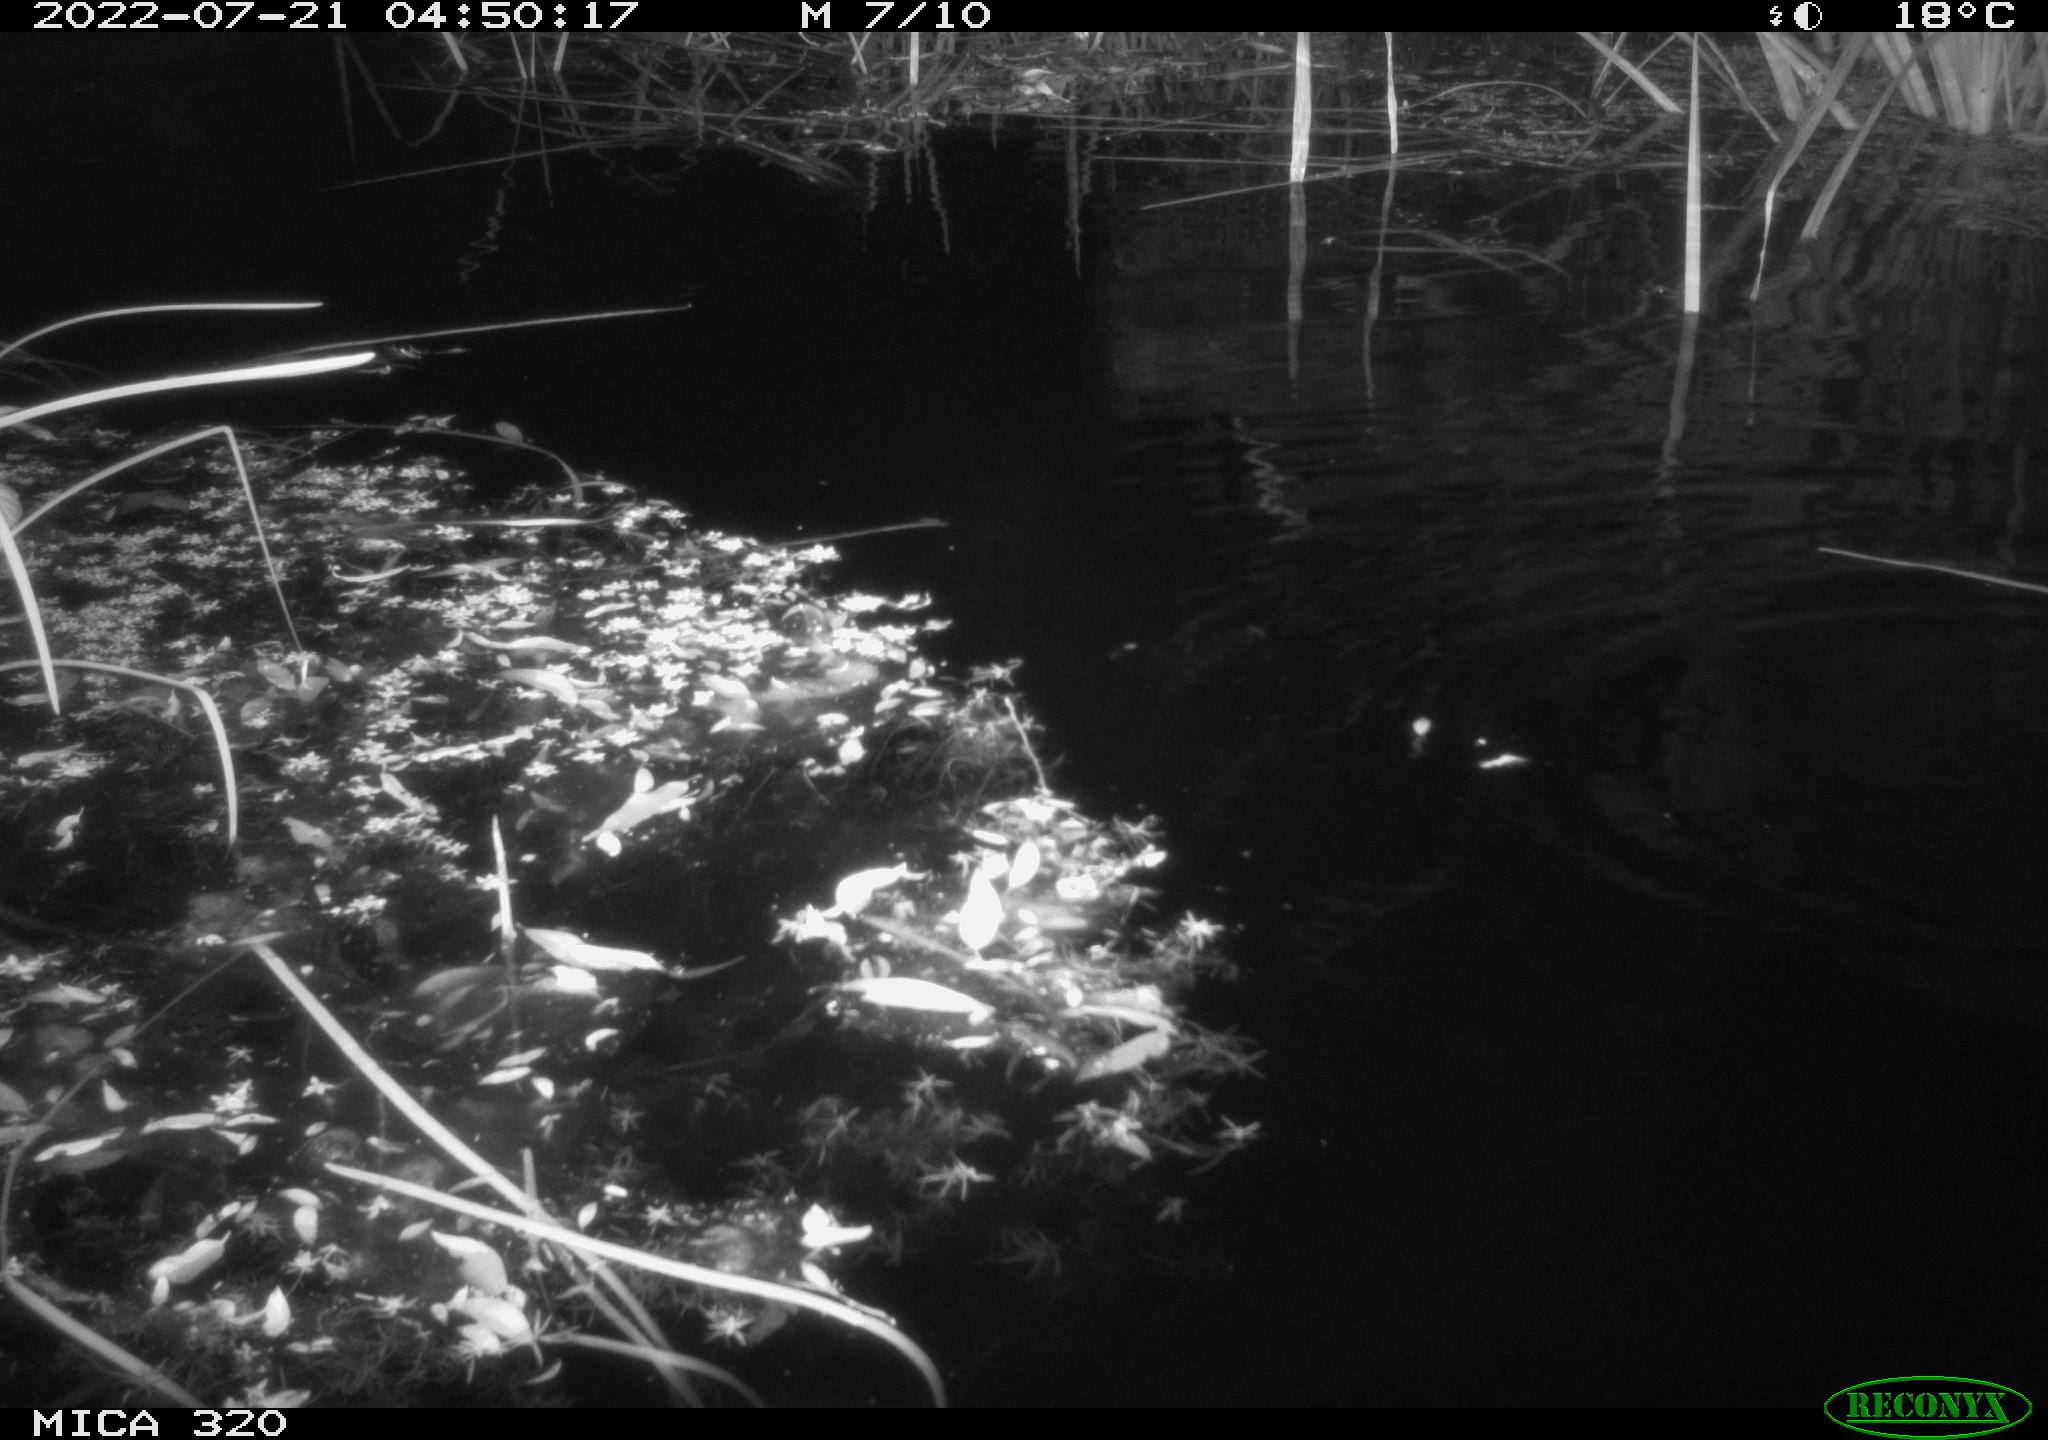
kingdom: Animalia
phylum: Chordata
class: Aves
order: Anseriformes
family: Anatidae
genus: Anas
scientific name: Anas platyrhynchos
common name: Mallard
